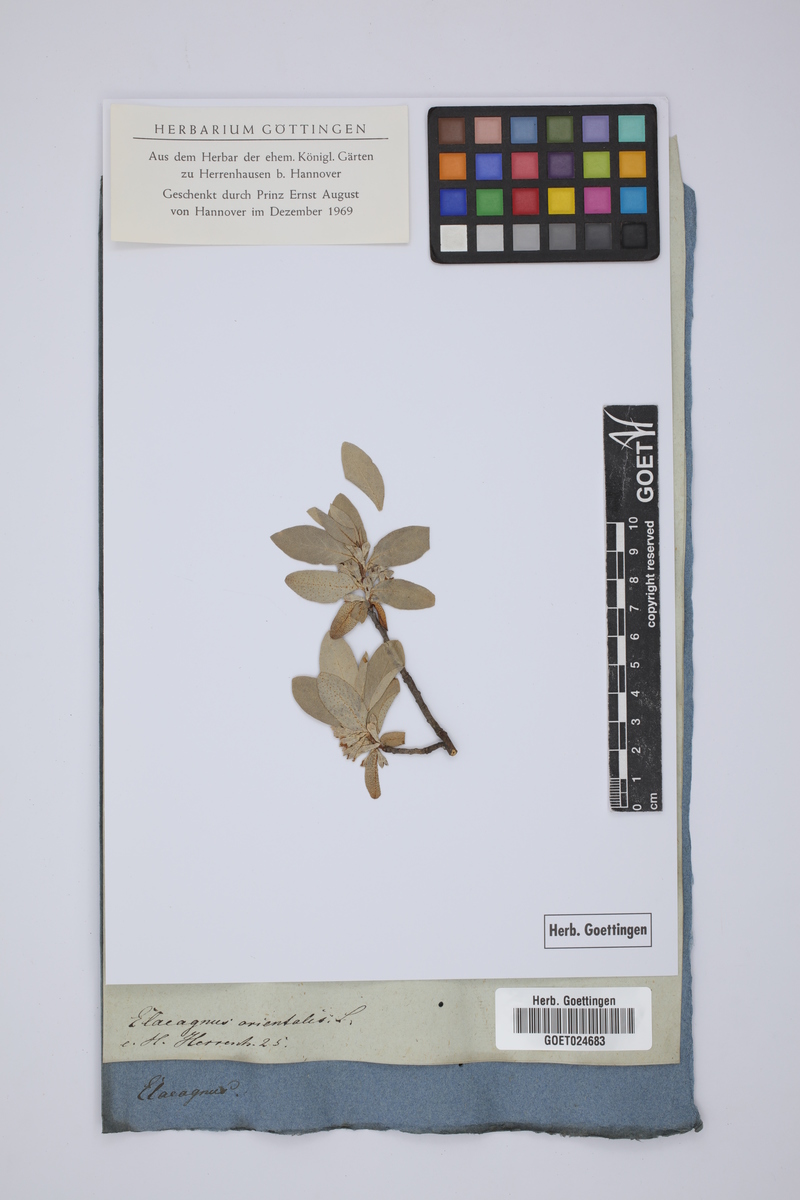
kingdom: Plantae
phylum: Tracheophyta
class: Magnoliopsida
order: Rosales
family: Elaeagnaceae
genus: Elaeagnus
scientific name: Elaeagnus angustifolia
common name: Russian olive
